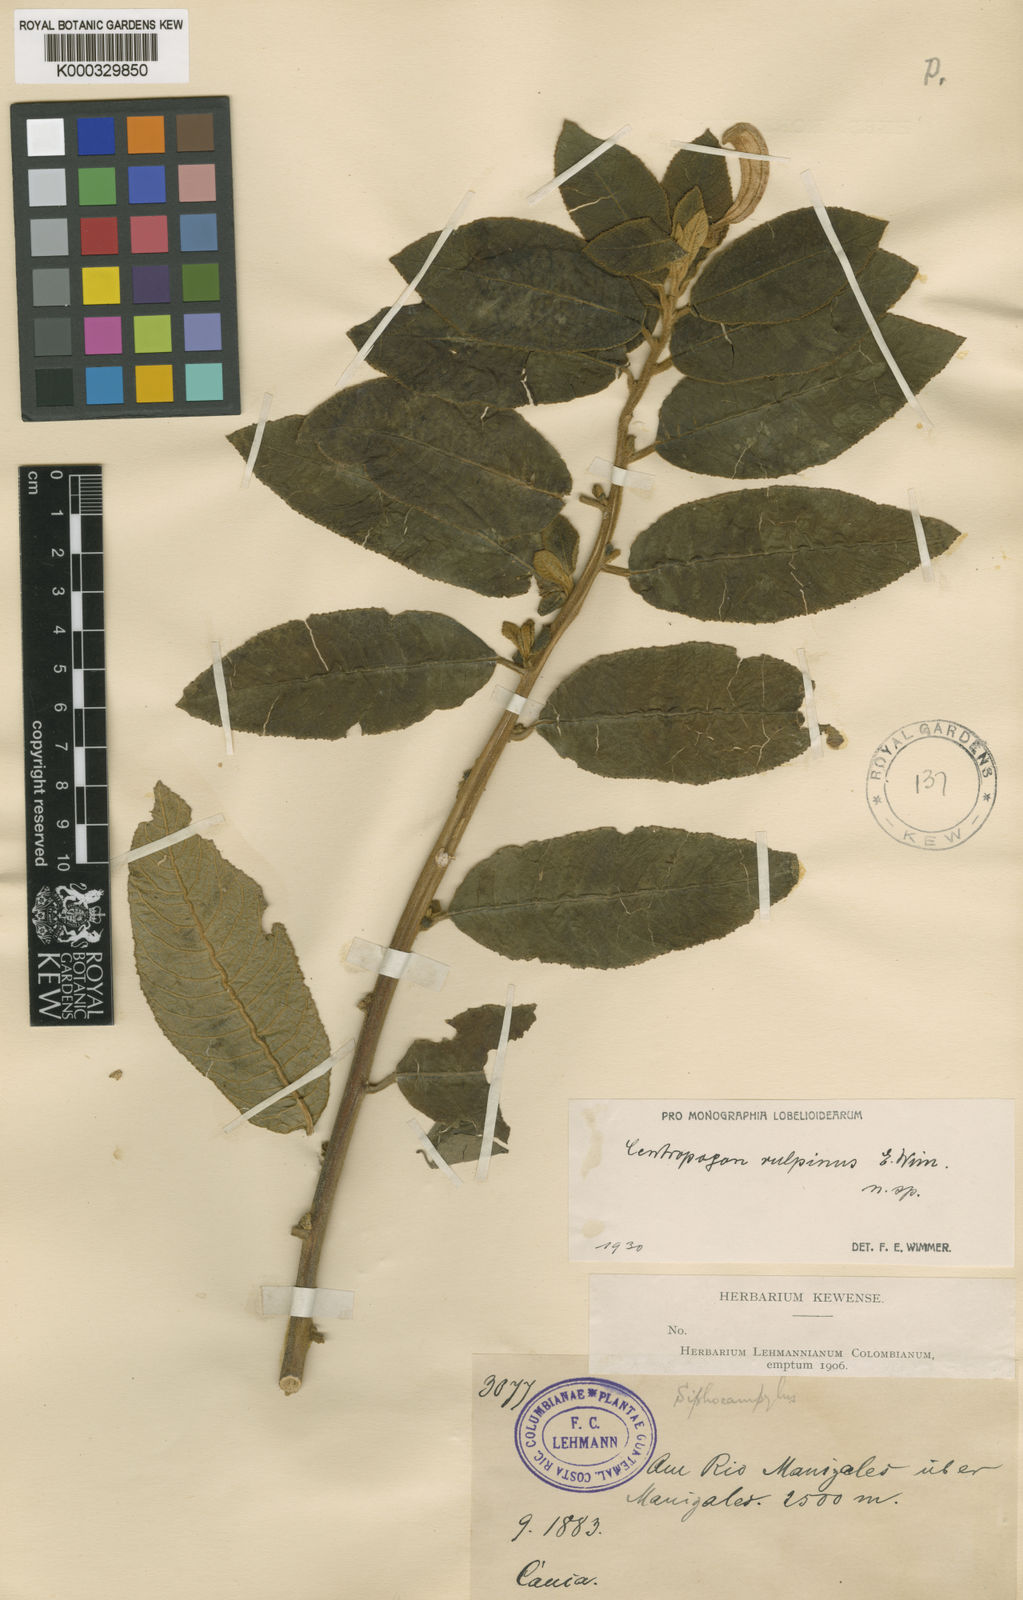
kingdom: Plantae
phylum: Tracheophyta
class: Magnoliopsida
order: Asterales
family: Campanulaceae
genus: Centropogon
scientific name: Centropogon vulpinus
